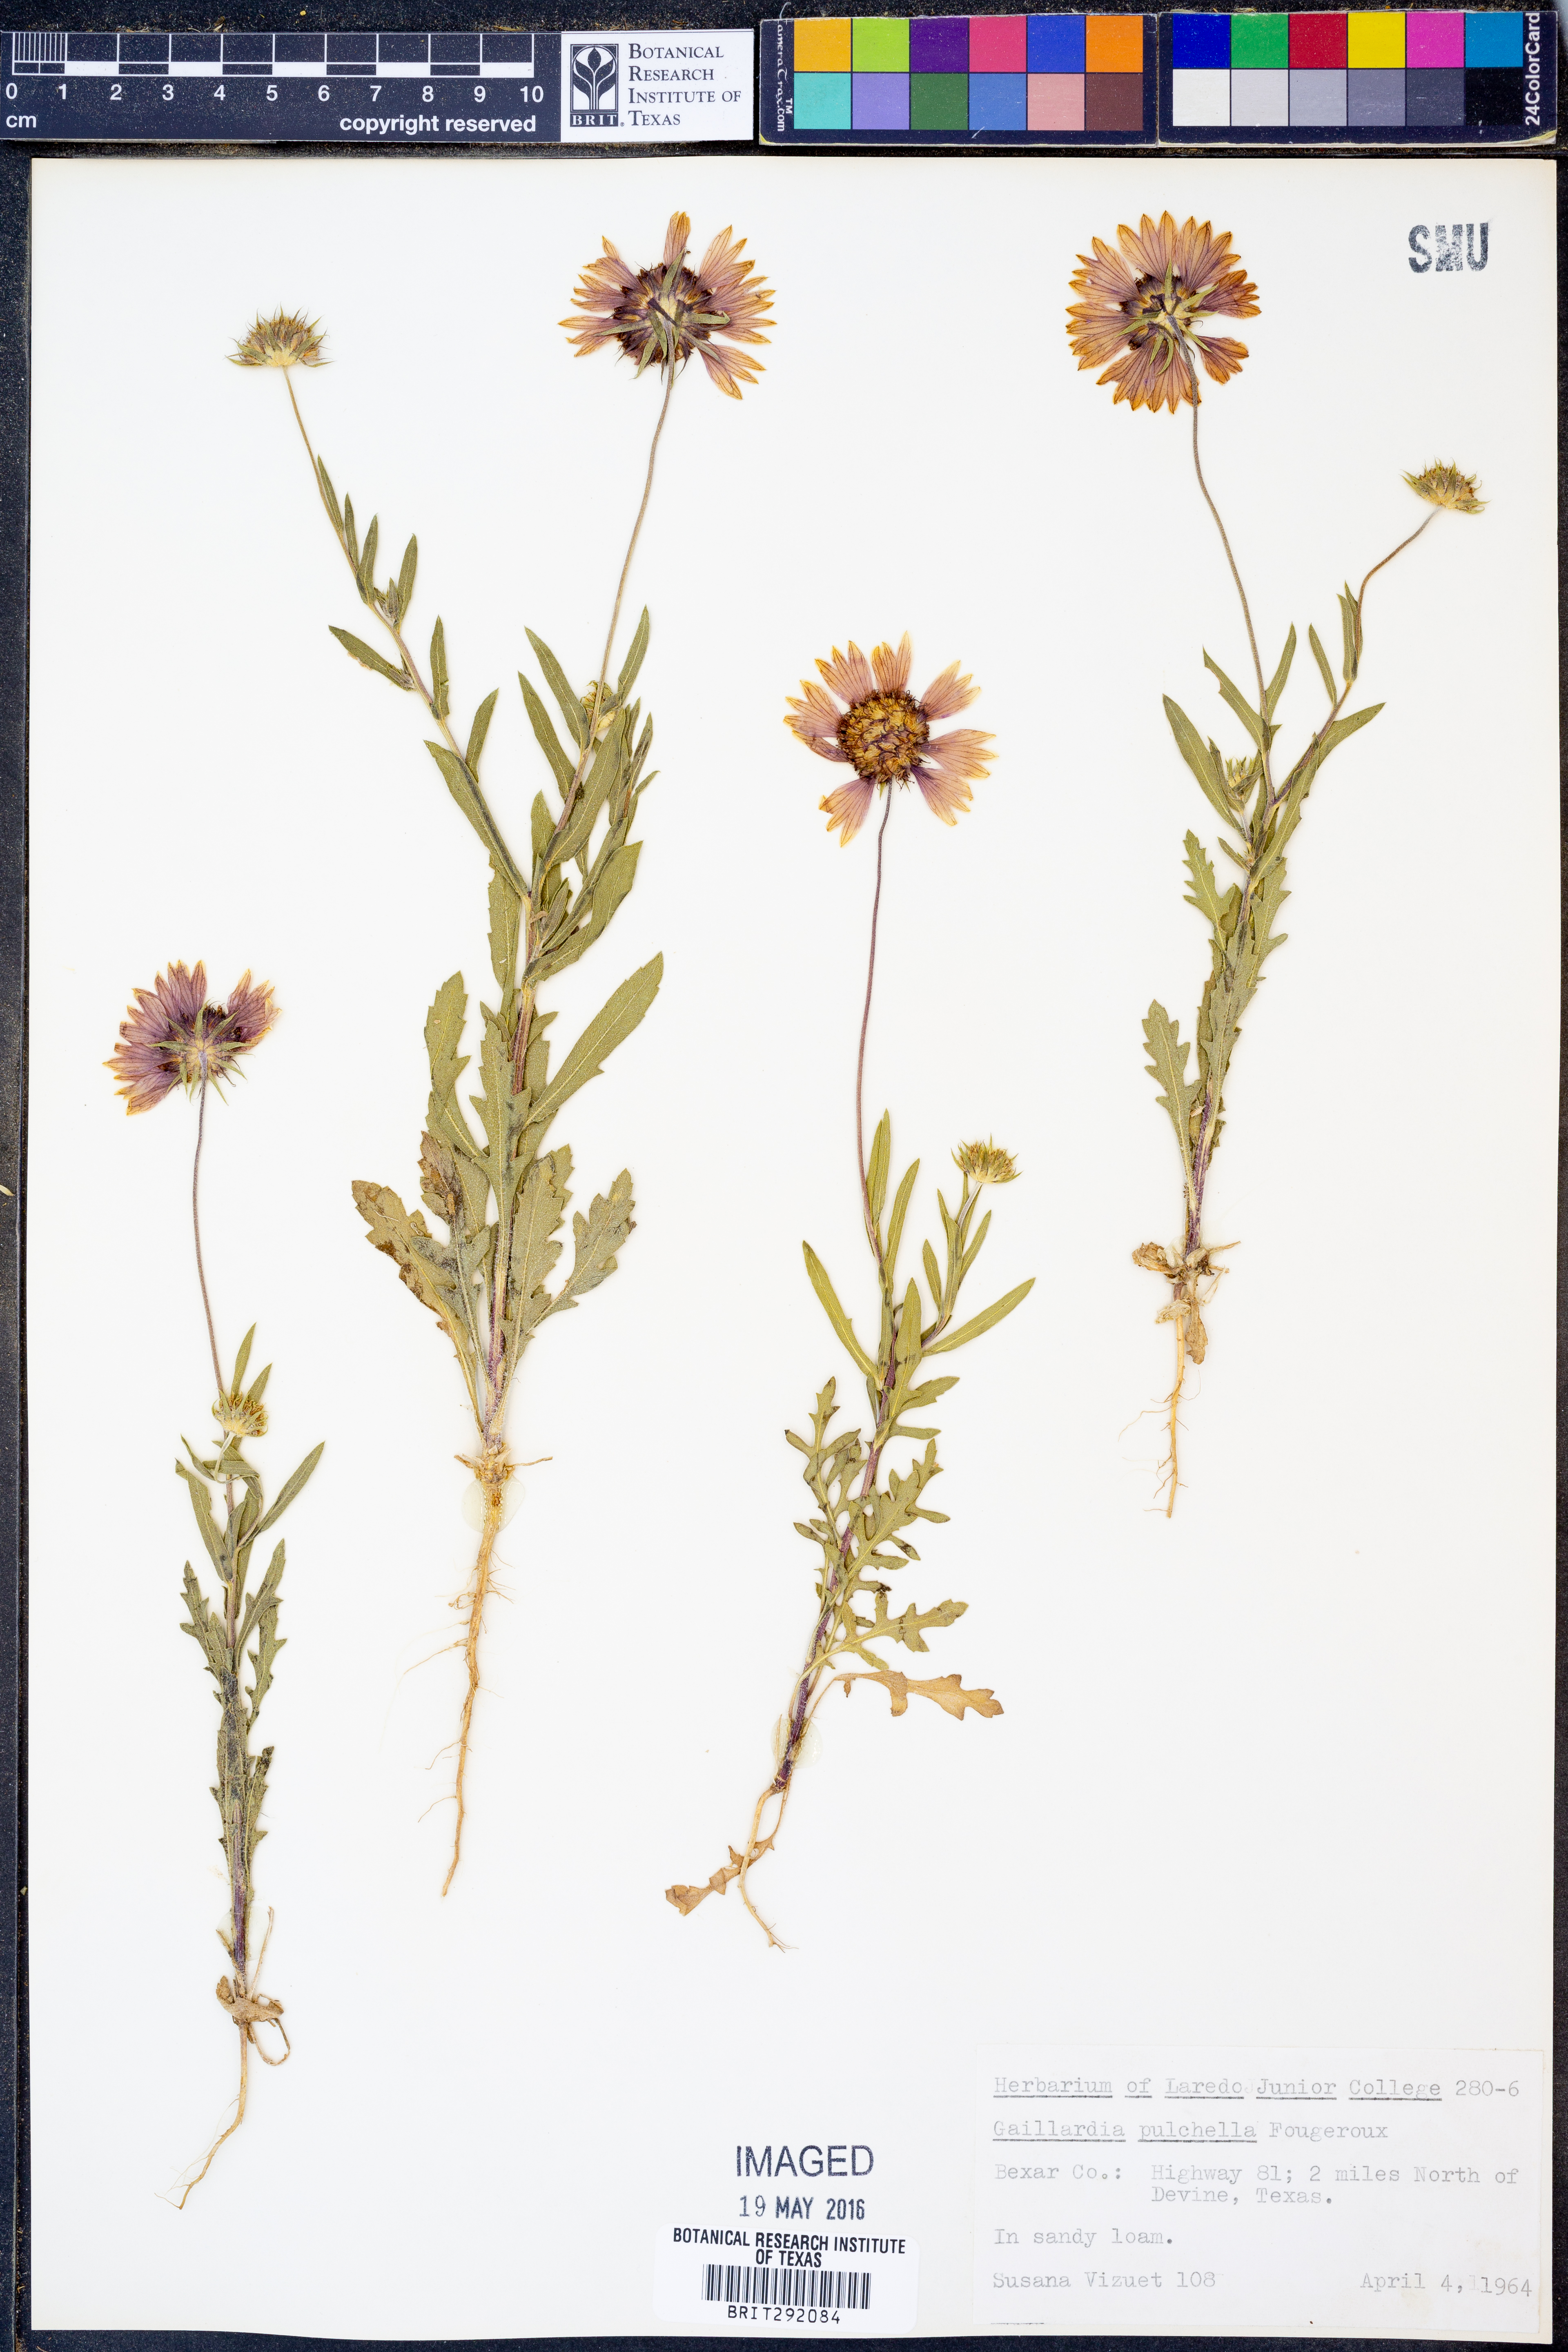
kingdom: Plantae
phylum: Tracheophyta
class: Magnoliopsida
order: Asterales
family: Asteraceae
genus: Gaillardia
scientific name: Gaillardia pulchella
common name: Firewheel
